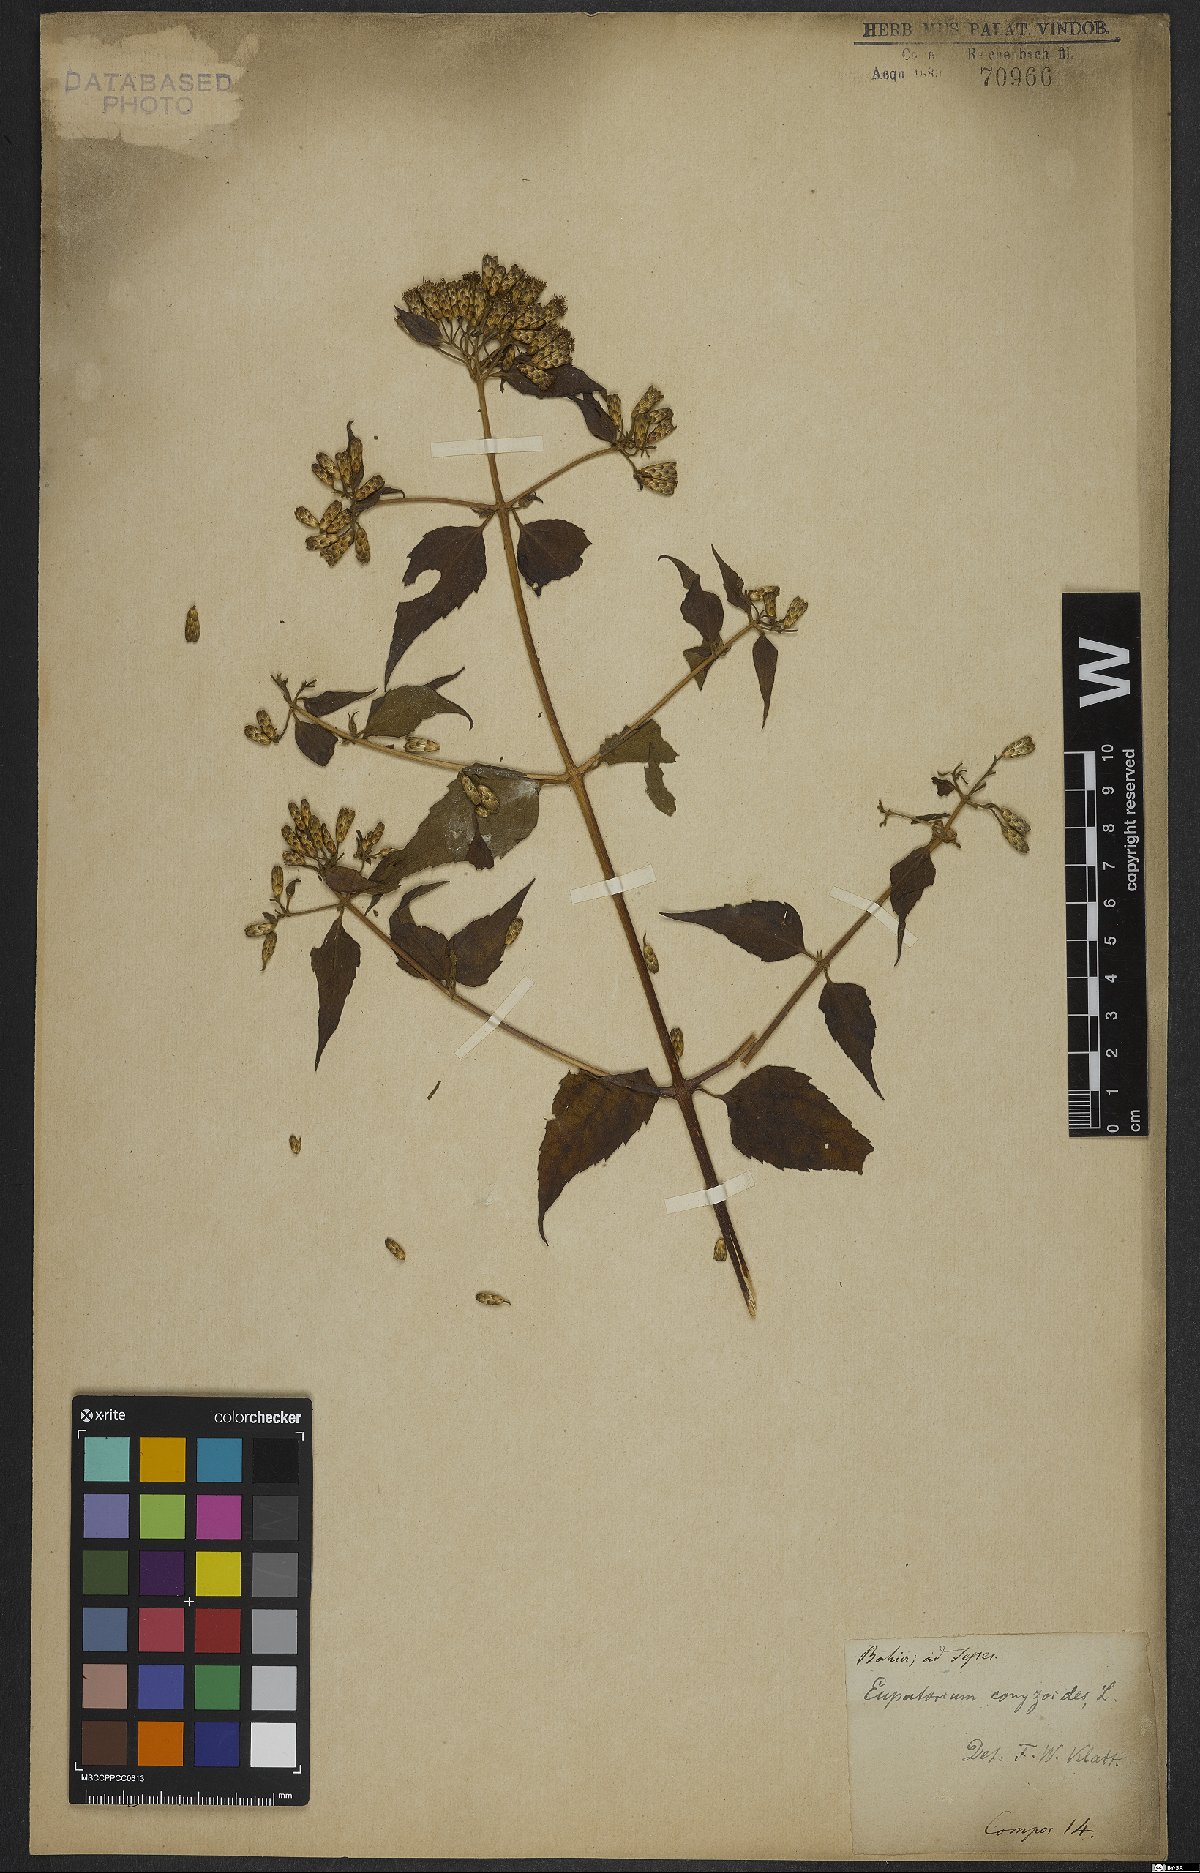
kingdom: Plantae
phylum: Tracheophyta
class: Magnoliopsida
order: Asterales
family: Asteraceae
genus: Chromolaena
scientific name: Chromolaena odorata
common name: Siamweed
